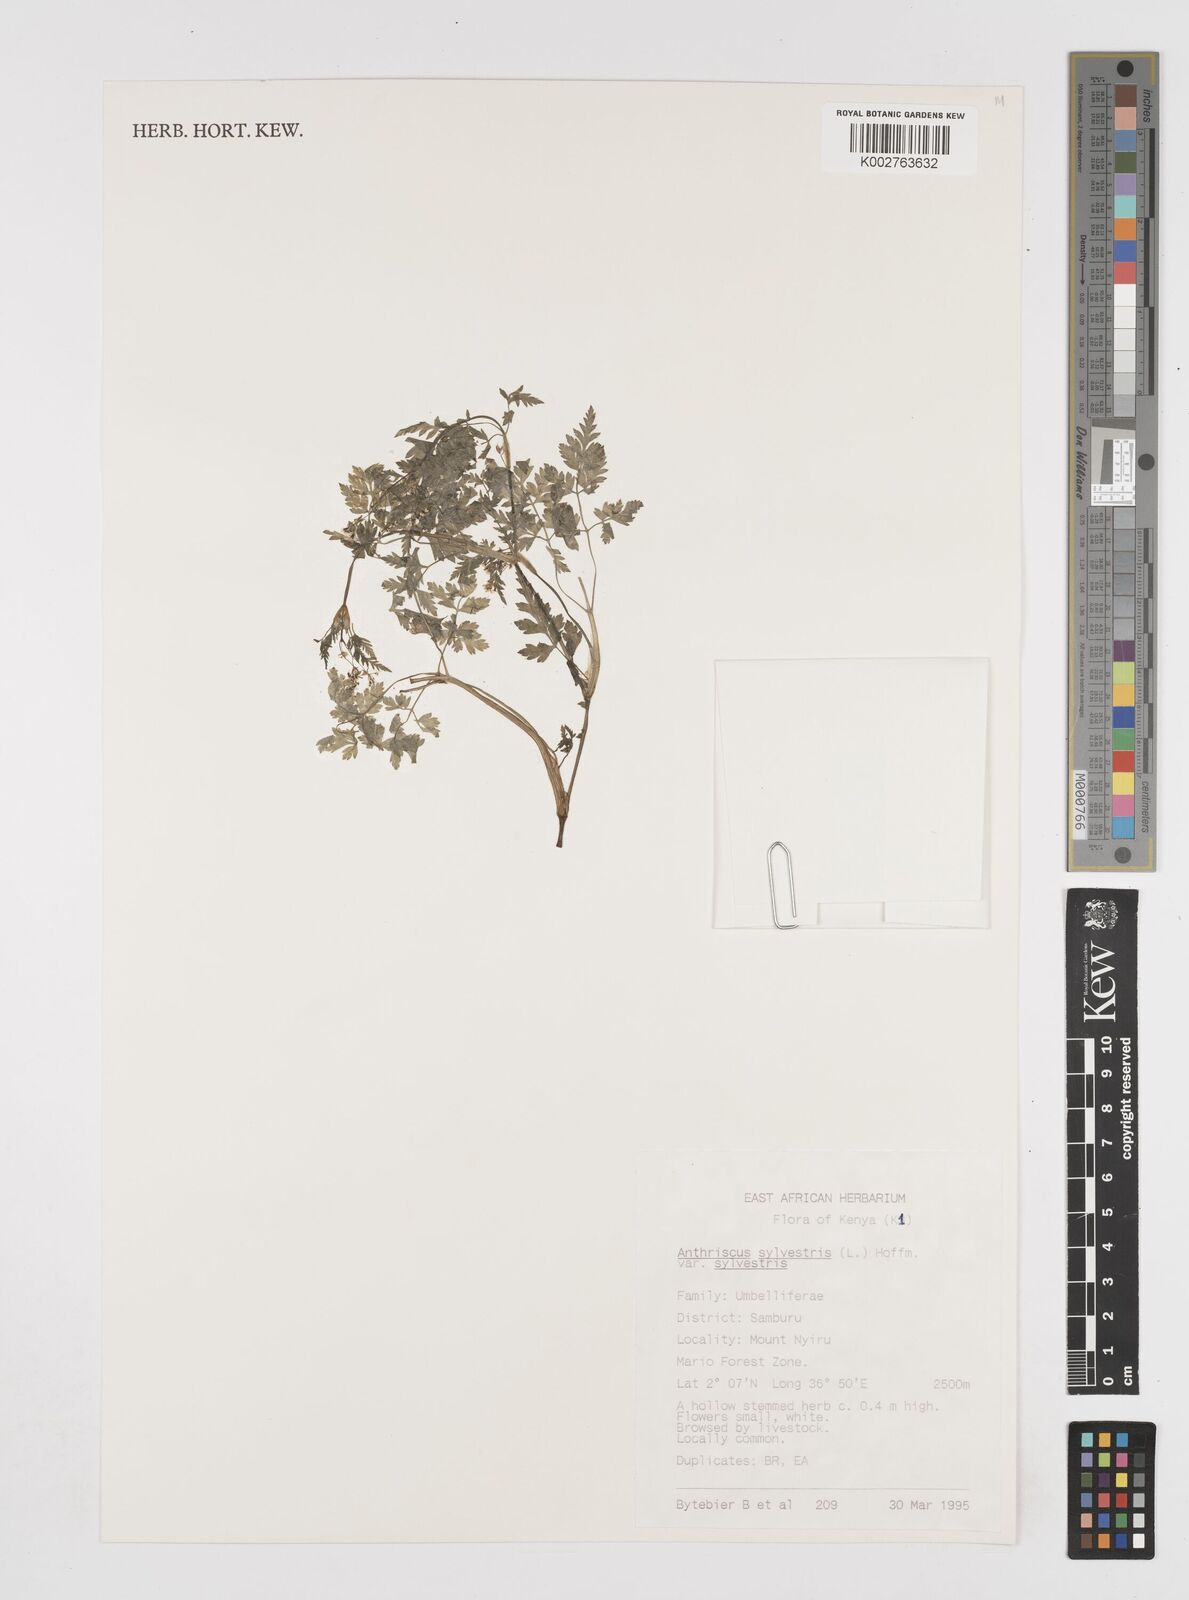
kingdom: Plantae
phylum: Tracheophyta
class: Magnoliopsida
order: Apiales
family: Apiaceae
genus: Anthriscus
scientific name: Anthriscus sylvestris
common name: Cow parsley
